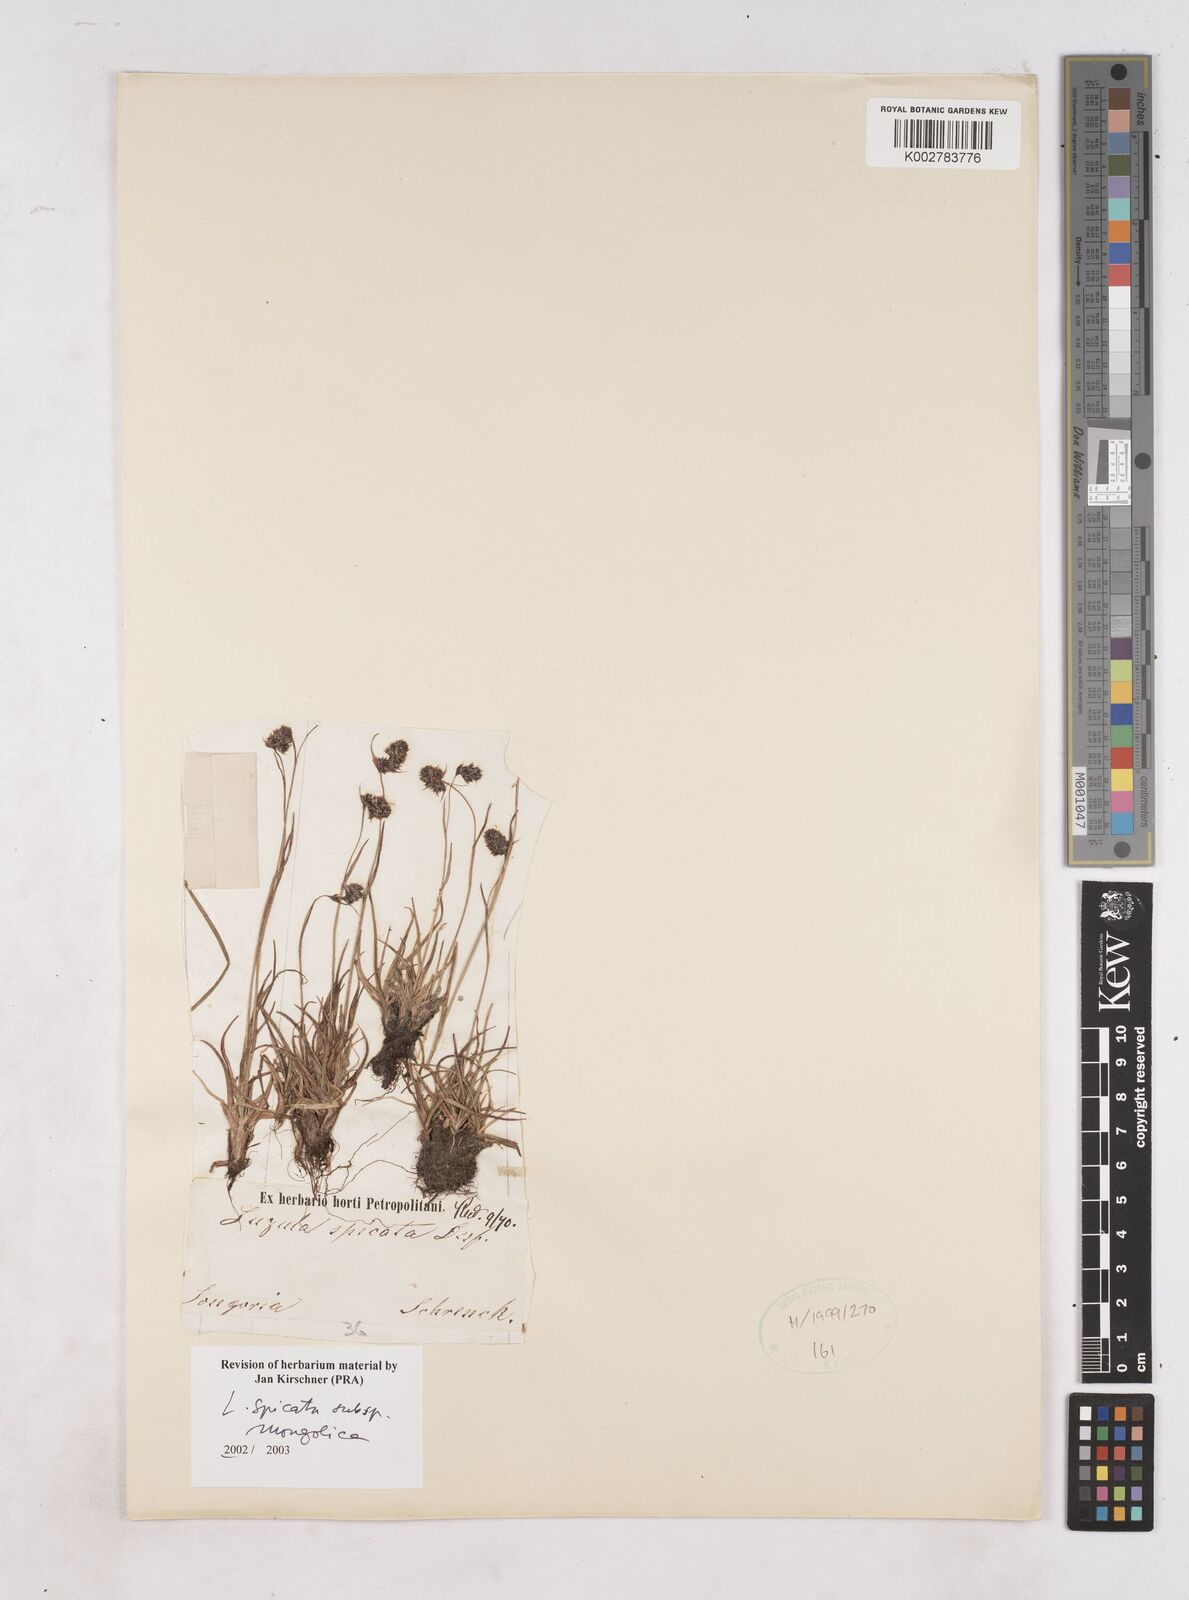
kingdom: Plantae
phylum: Tracheophyta
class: Liliopsida
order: Poales
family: Juncaceae
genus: Luzula
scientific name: Luzula spicata
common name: Spiked wood-rush
